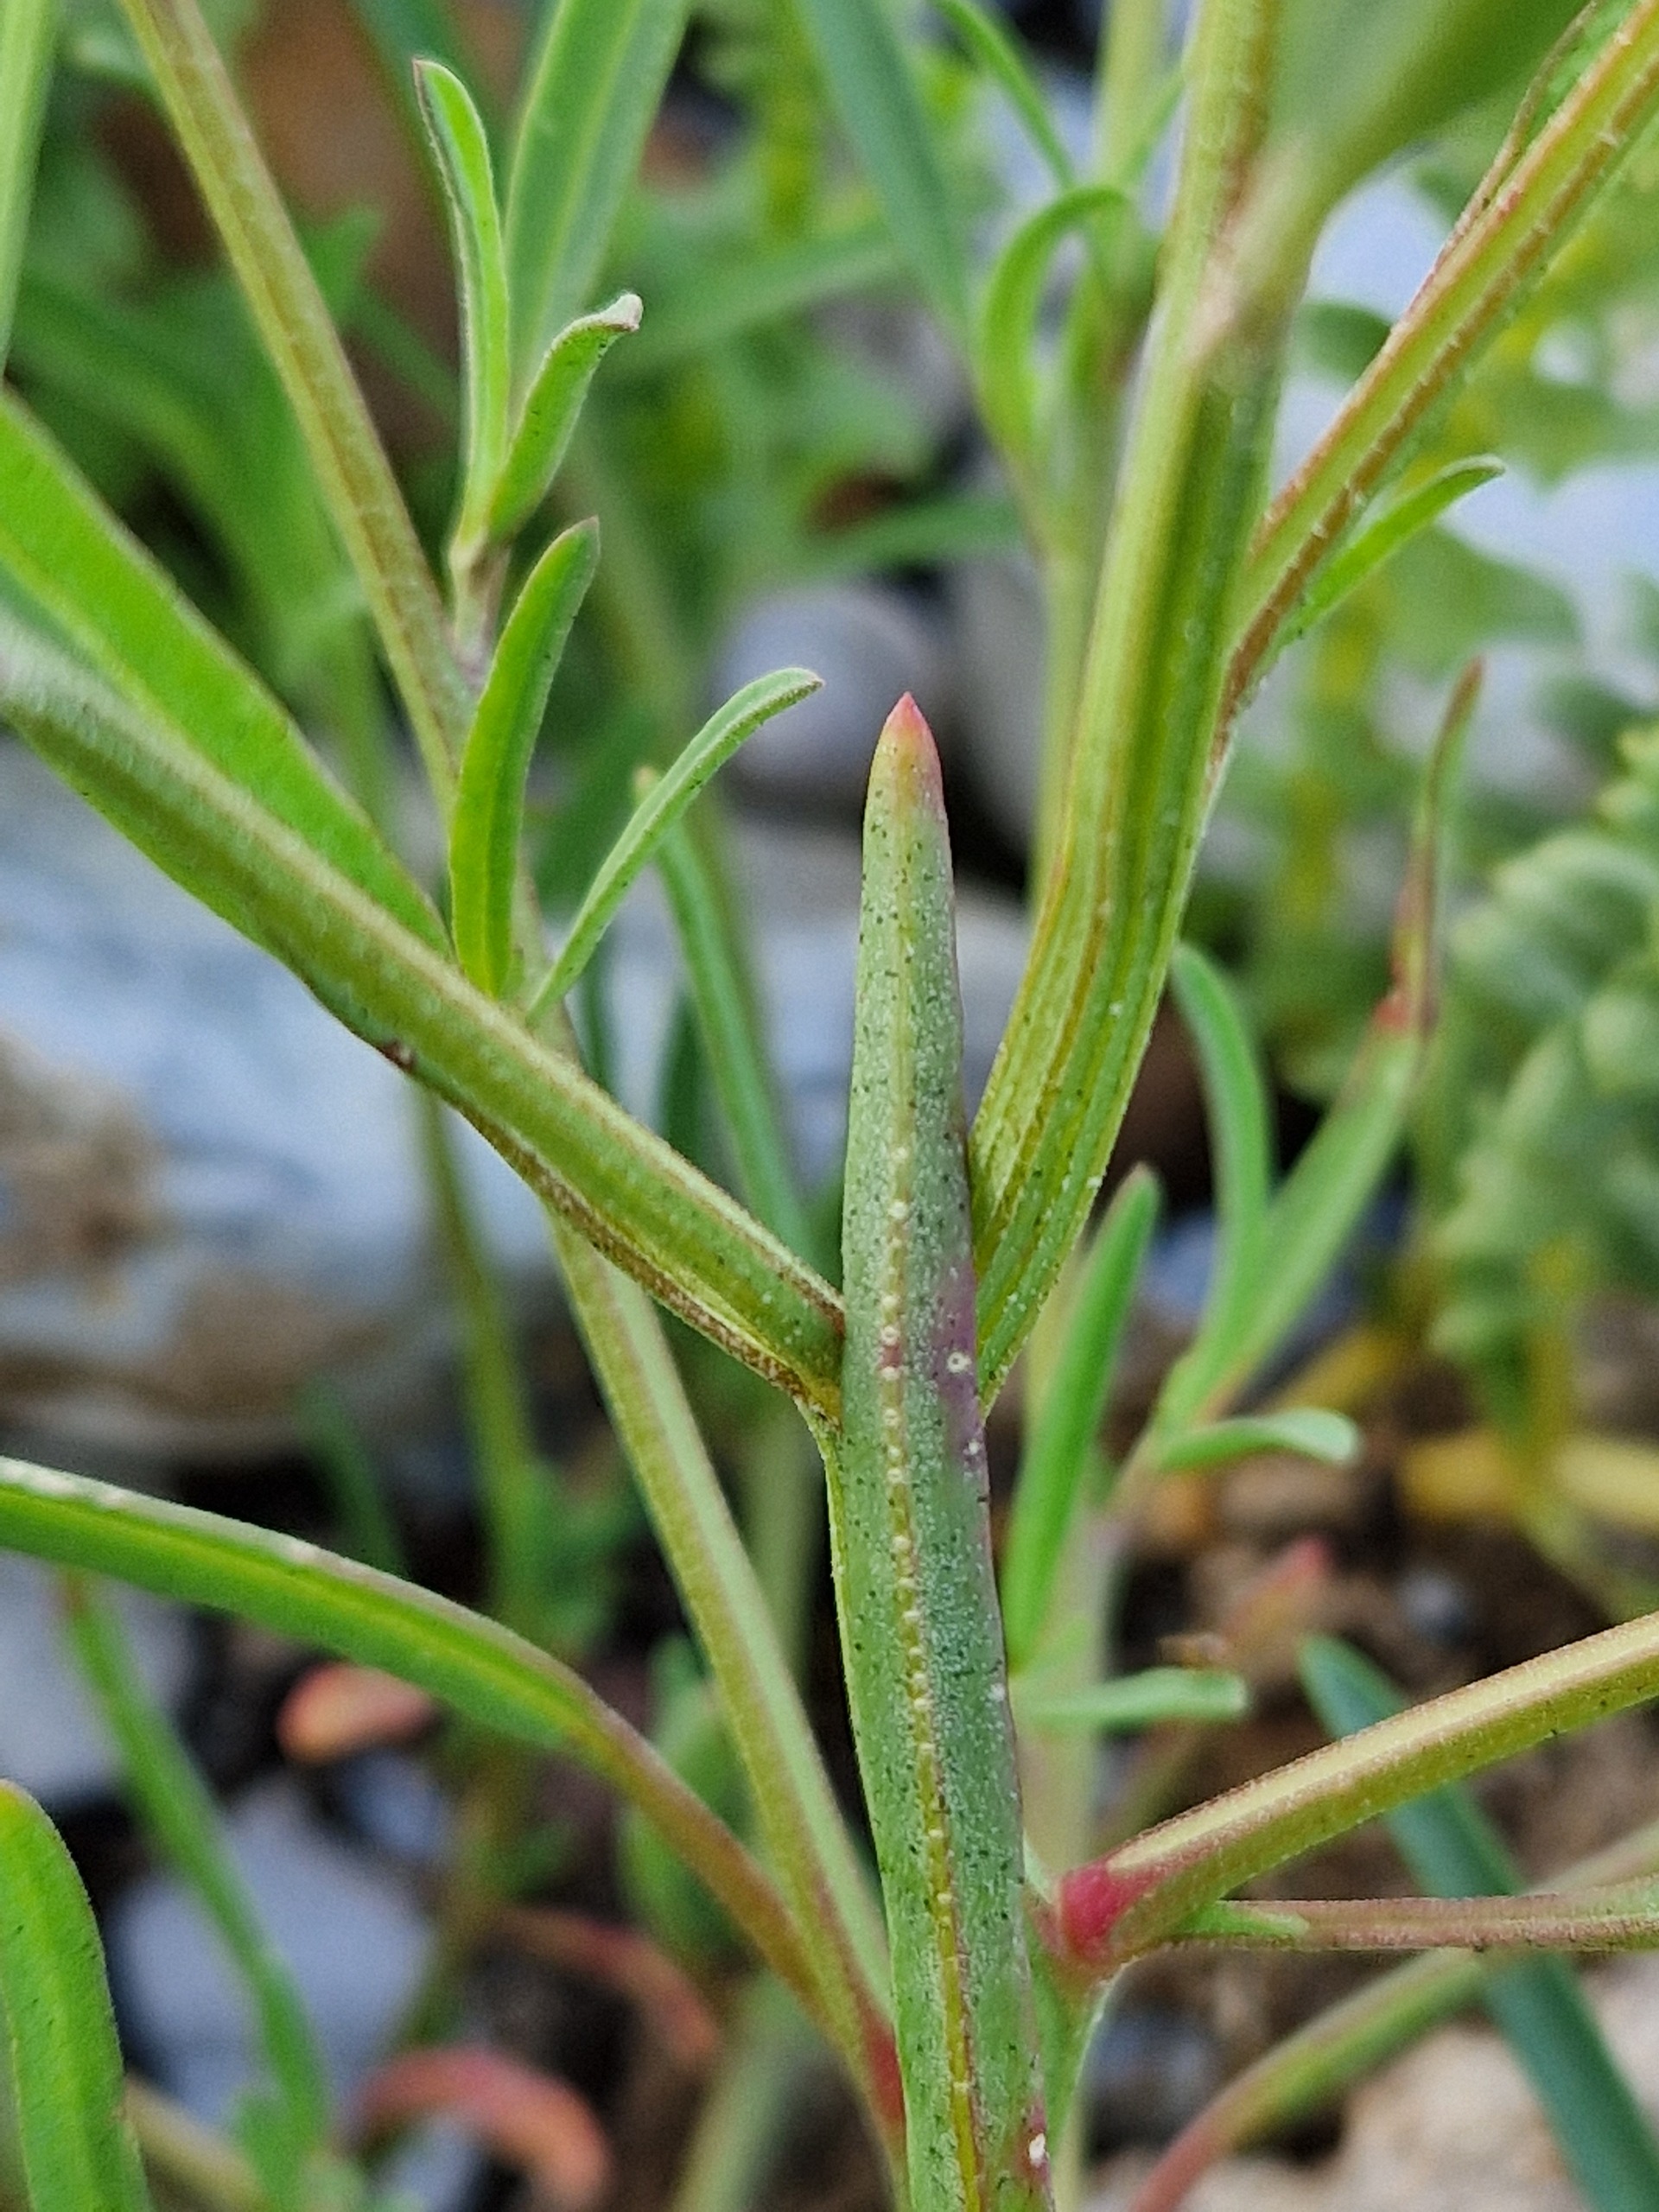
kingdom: Plantae
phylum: Tracheophyta
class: Magnoliopsida
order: Caryophyllales
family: Amaranthaceae
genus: Atriplex
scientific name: Atriplex littoralis
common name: Strand-mælde
